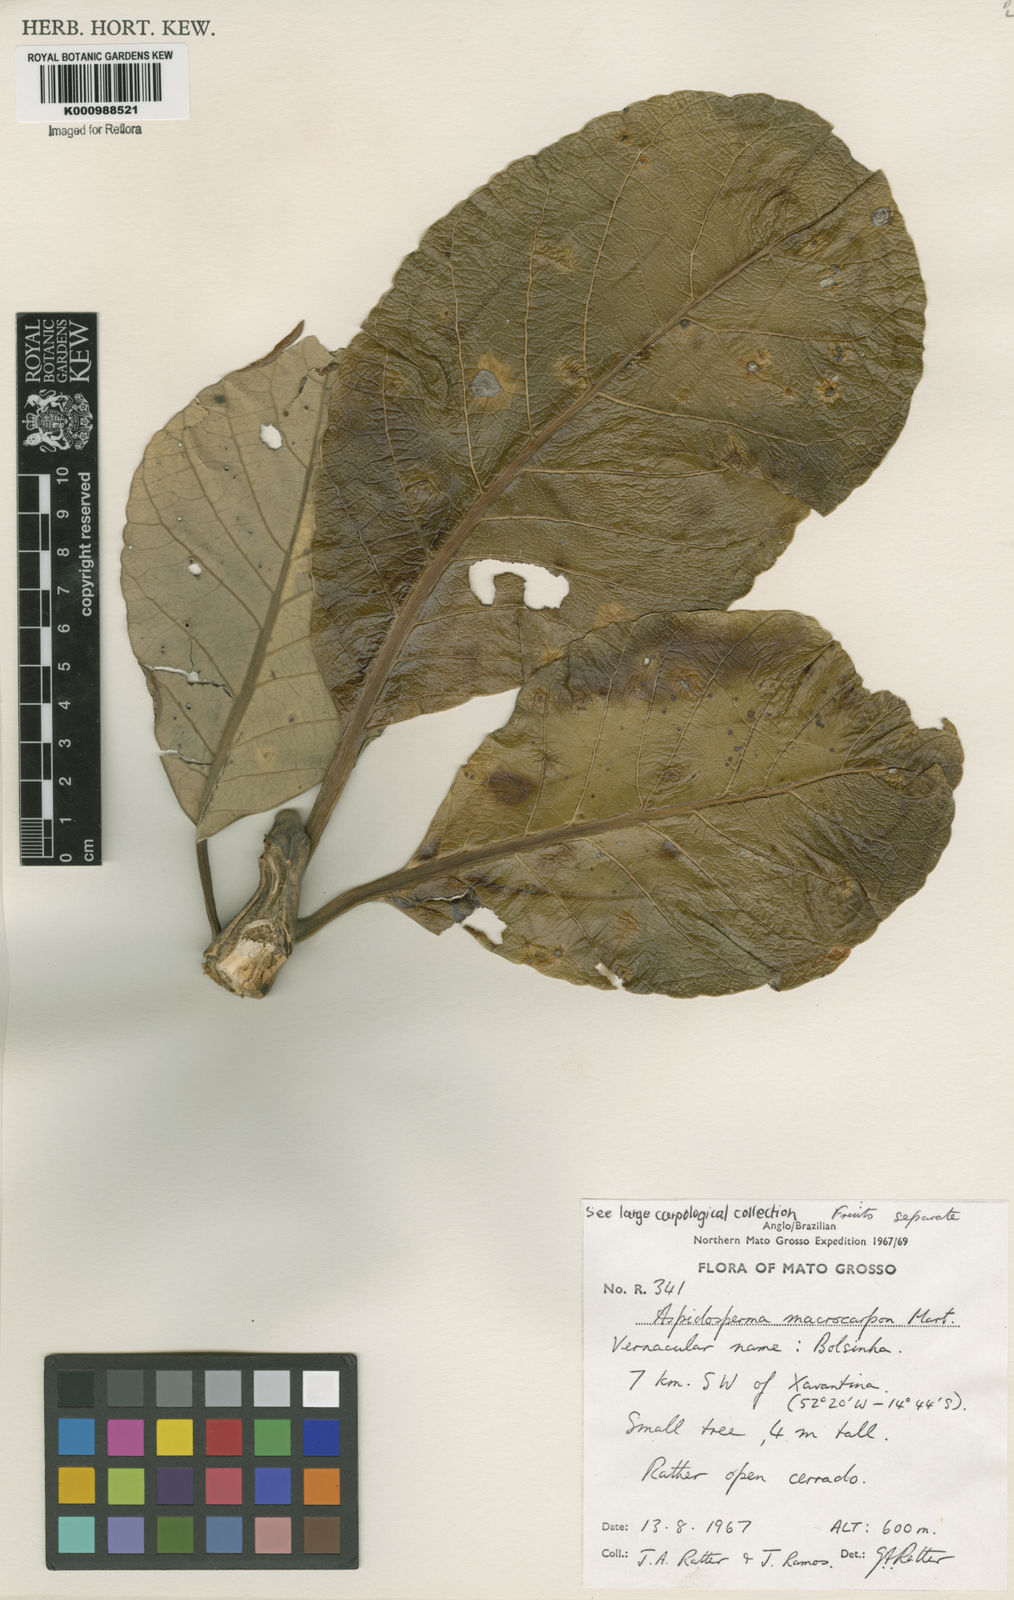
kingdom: Plantae
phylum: Tracheophyta
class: Magnoliopsida
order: Gentianales
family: Apocynaceae
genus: Aspidosperma
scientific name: Aspidosperma macrocarpon
